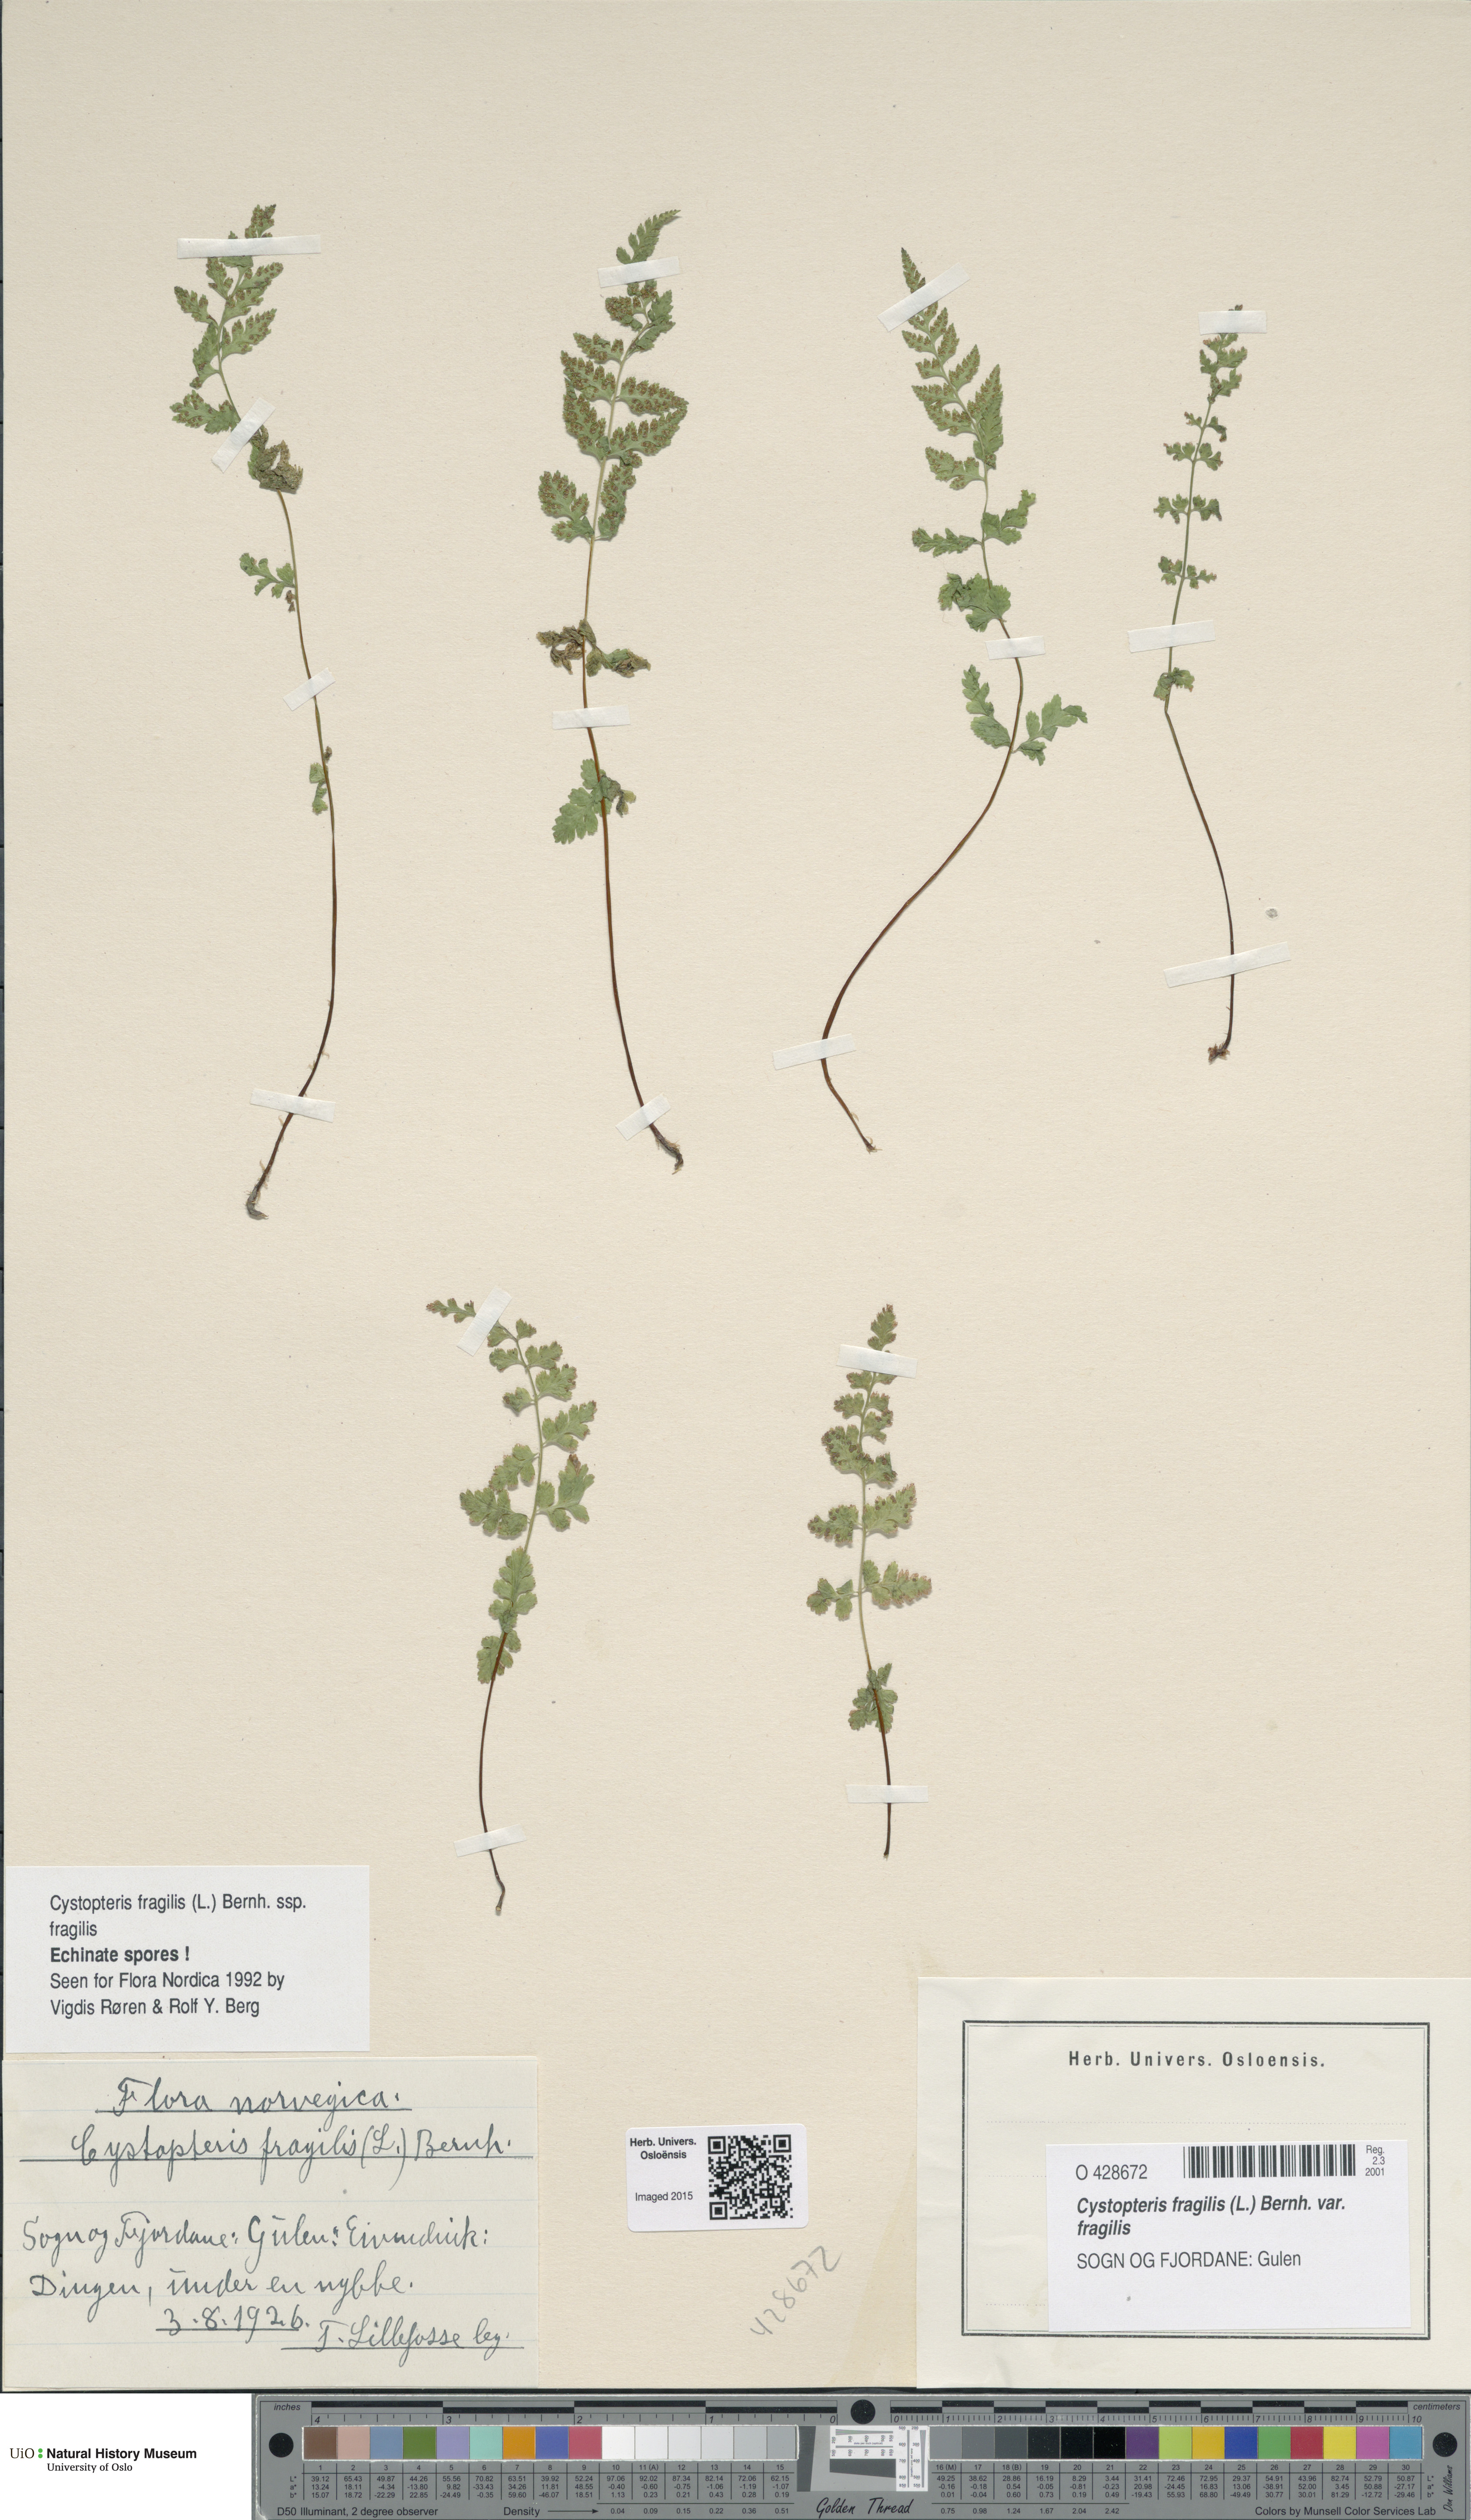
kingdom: Plantae
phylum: Tracheophyta
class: Polypodiopsida
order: Polypodiales
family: Cystopteridaceae
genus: Cystopteris
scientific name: Cystopteris fragilis
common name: Brittle bladder fern
